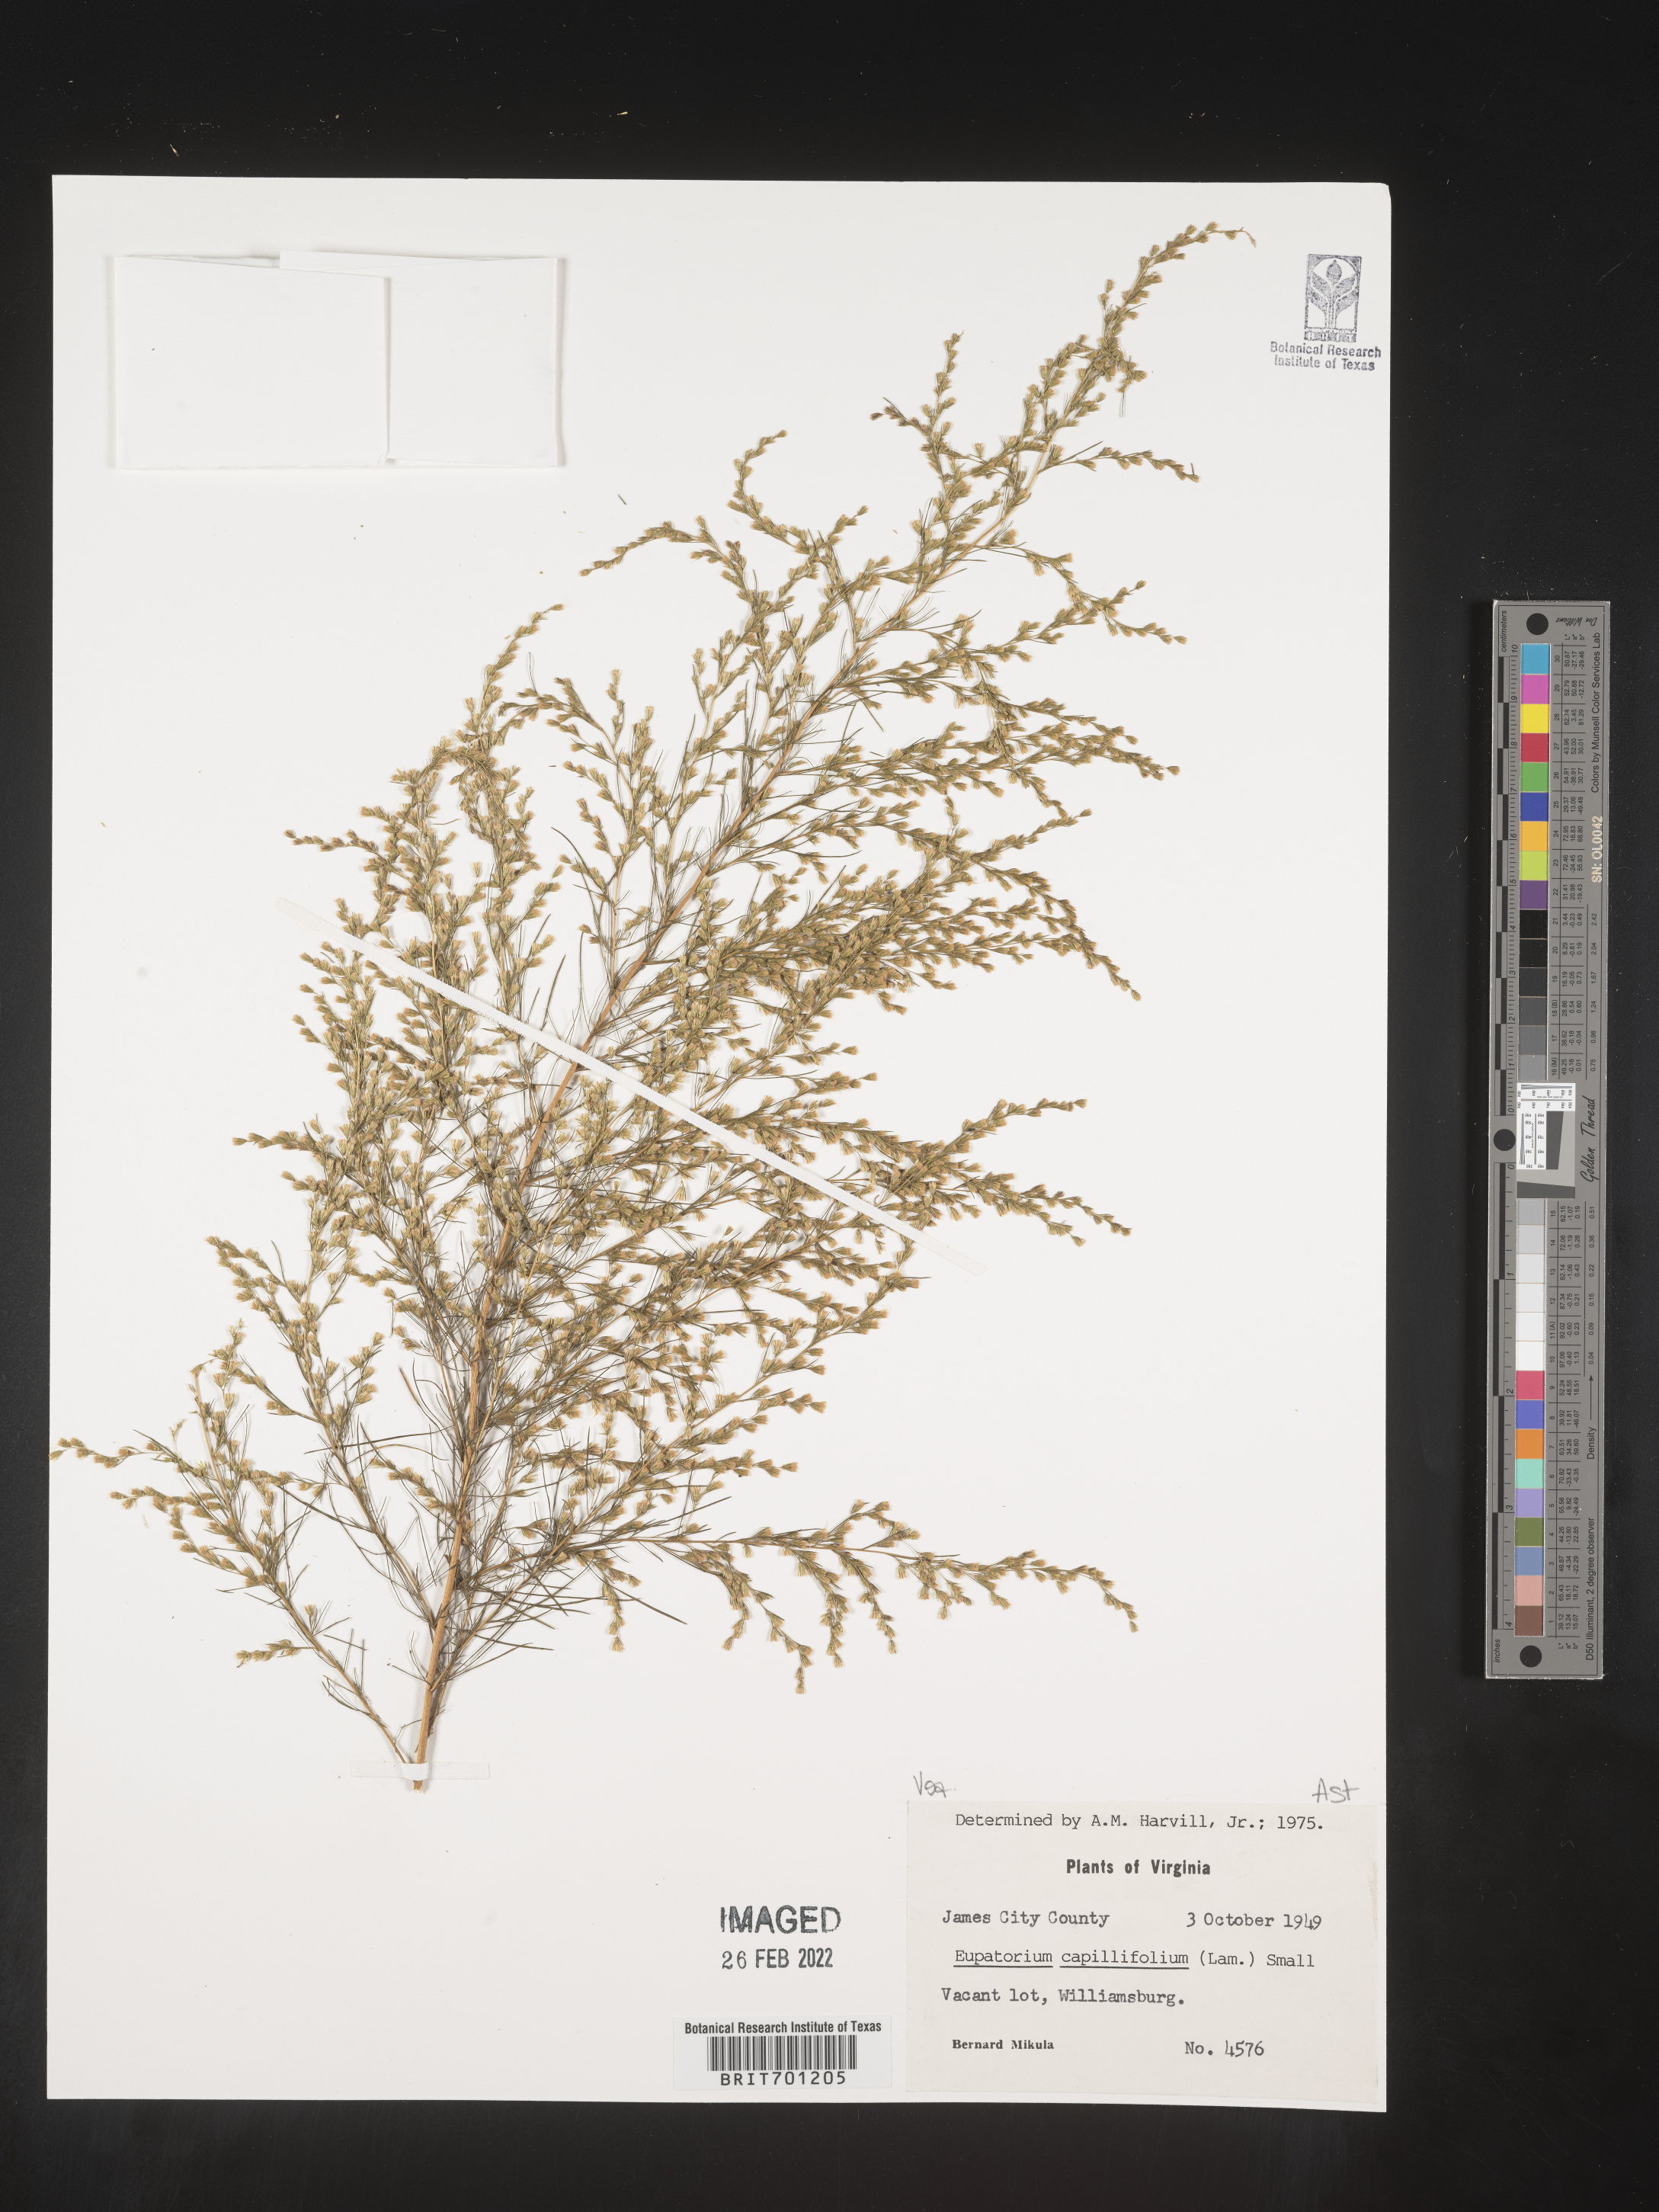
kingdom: Plantae
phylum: Tracheophyta
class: Magnoliopsida
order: Asterales
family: Asteraceae
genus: Eupatorium
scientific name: Eupatorium capillifolium
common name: Dog-fennel
